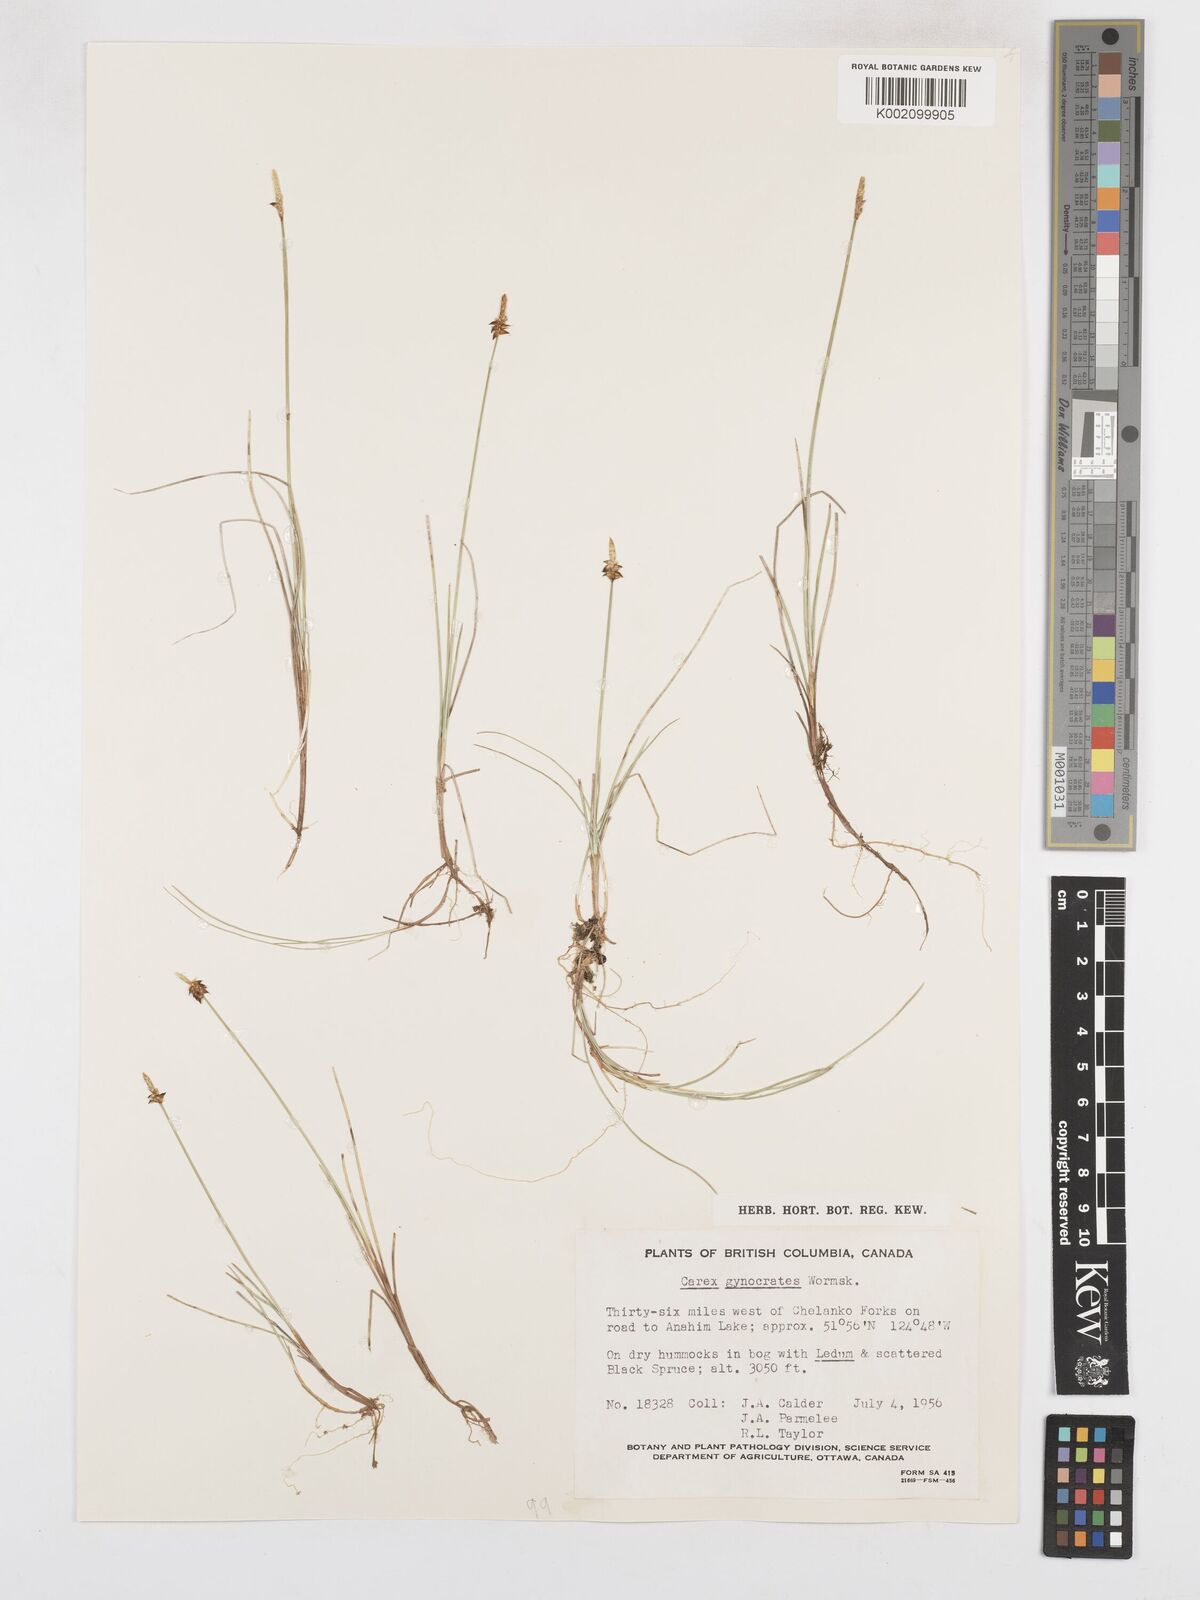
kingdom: Plantae
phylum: Tracheophyta
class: Liliopsida
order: Poales
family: Cyperaceae
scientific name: Cyperaceae
